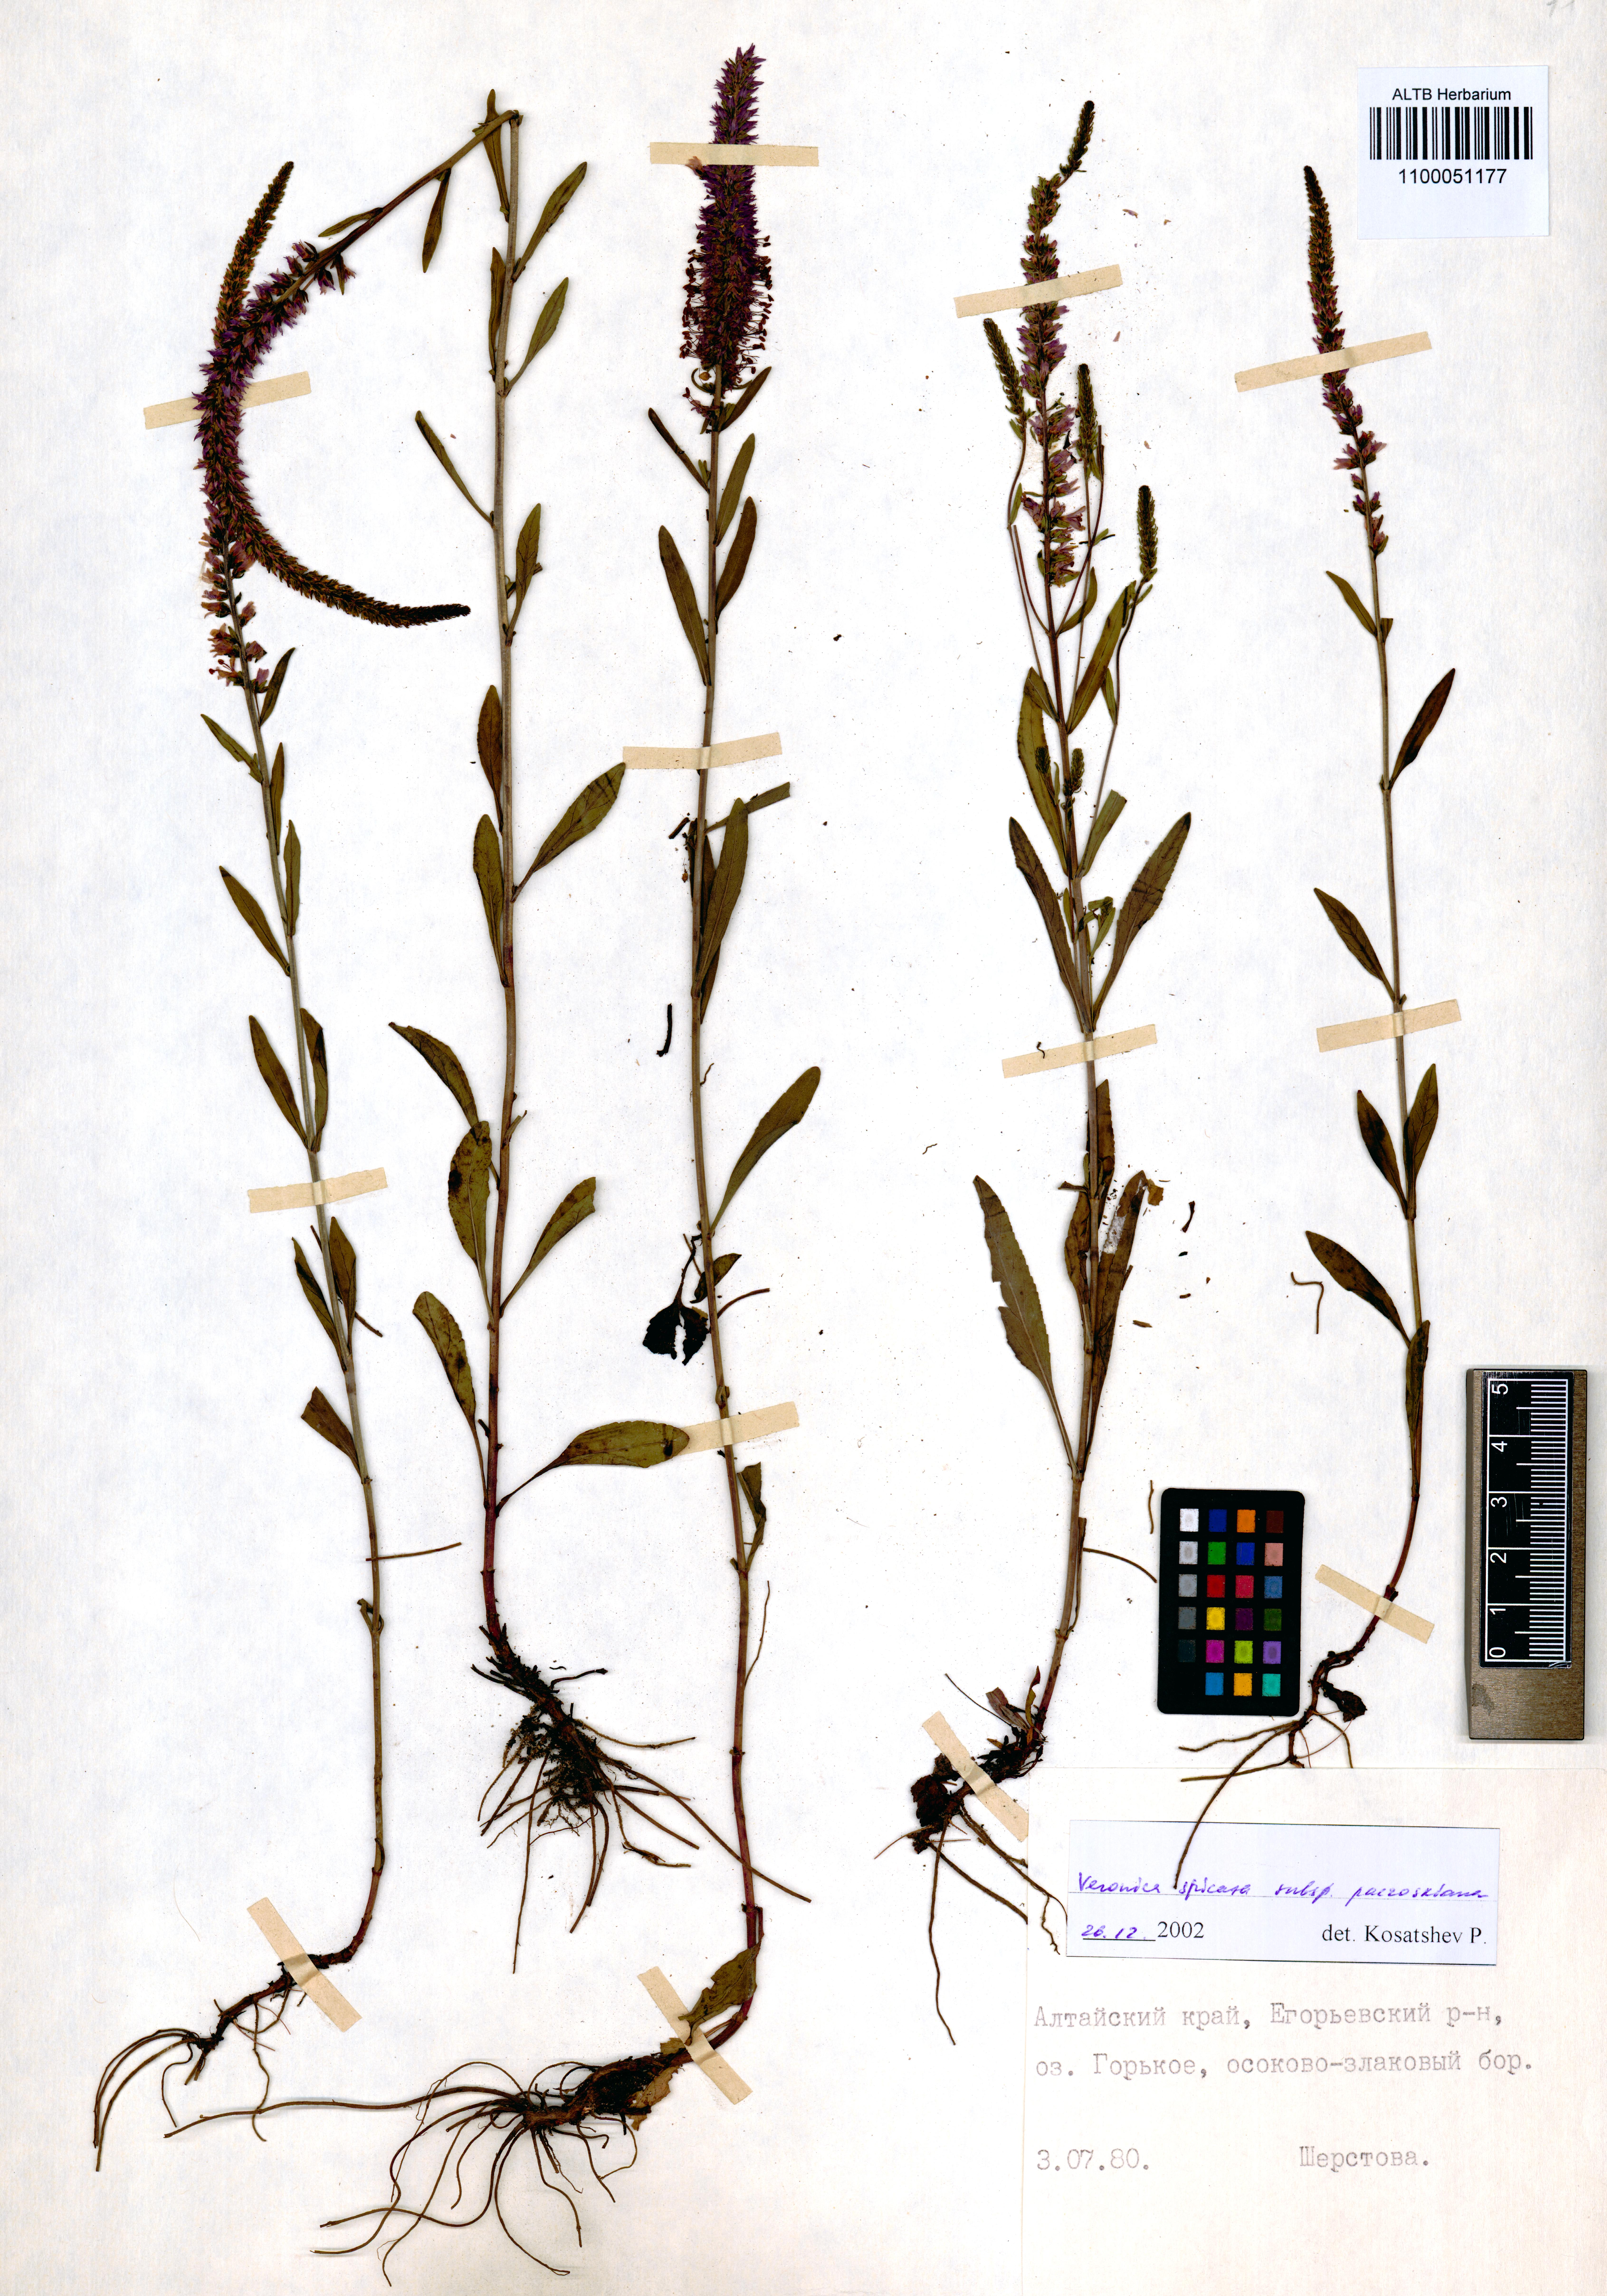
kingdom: Plantae
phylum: Tracheophyta
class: Magnoliopsida
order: Lamiales
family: Plantaginaceae
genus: Veronica
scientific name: Veronica spicata
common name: Spiked speedwell
